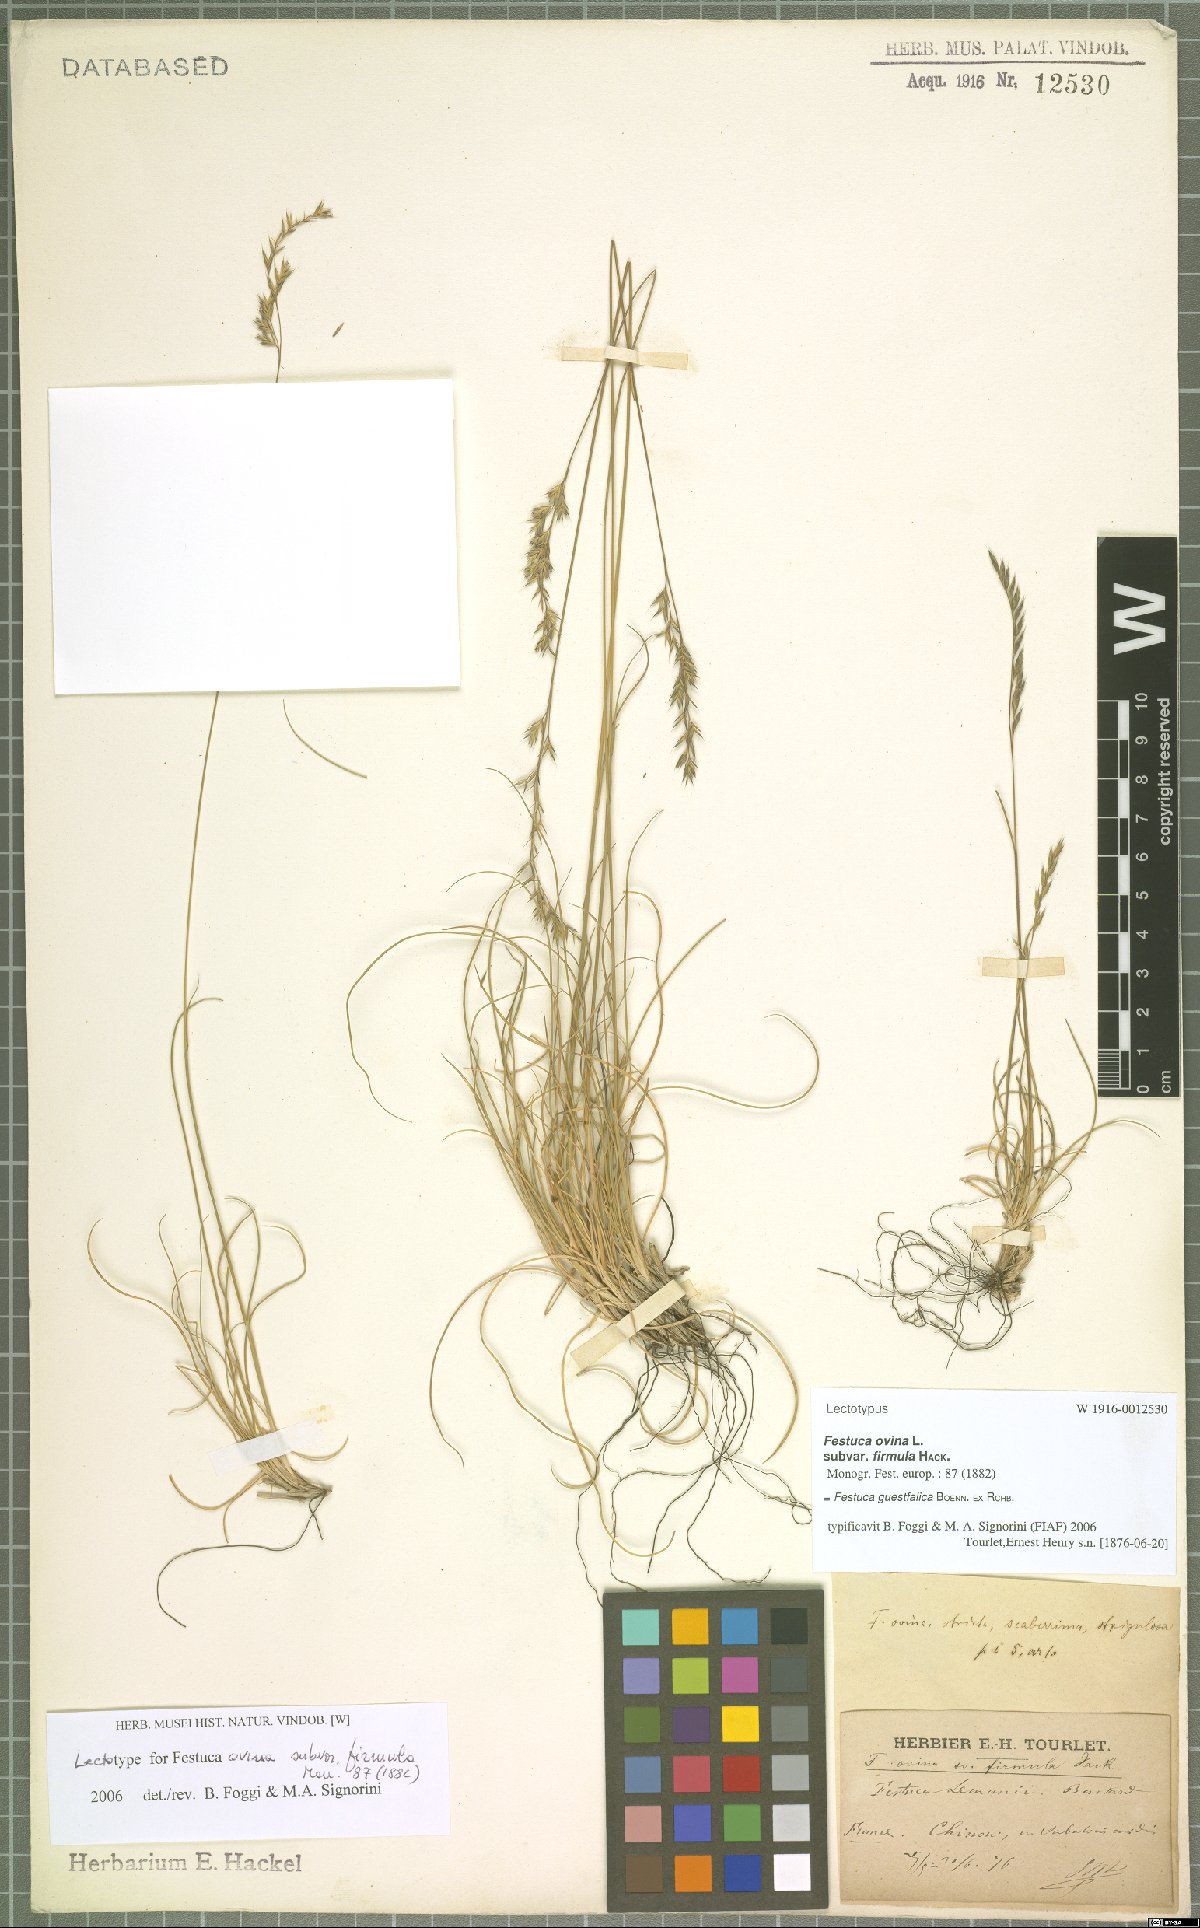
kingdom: Plantae
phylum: Tracheophyta
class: Liliopsida
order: Poales
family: Poaceae
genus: Festuca
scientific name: Festuca guestfalica
